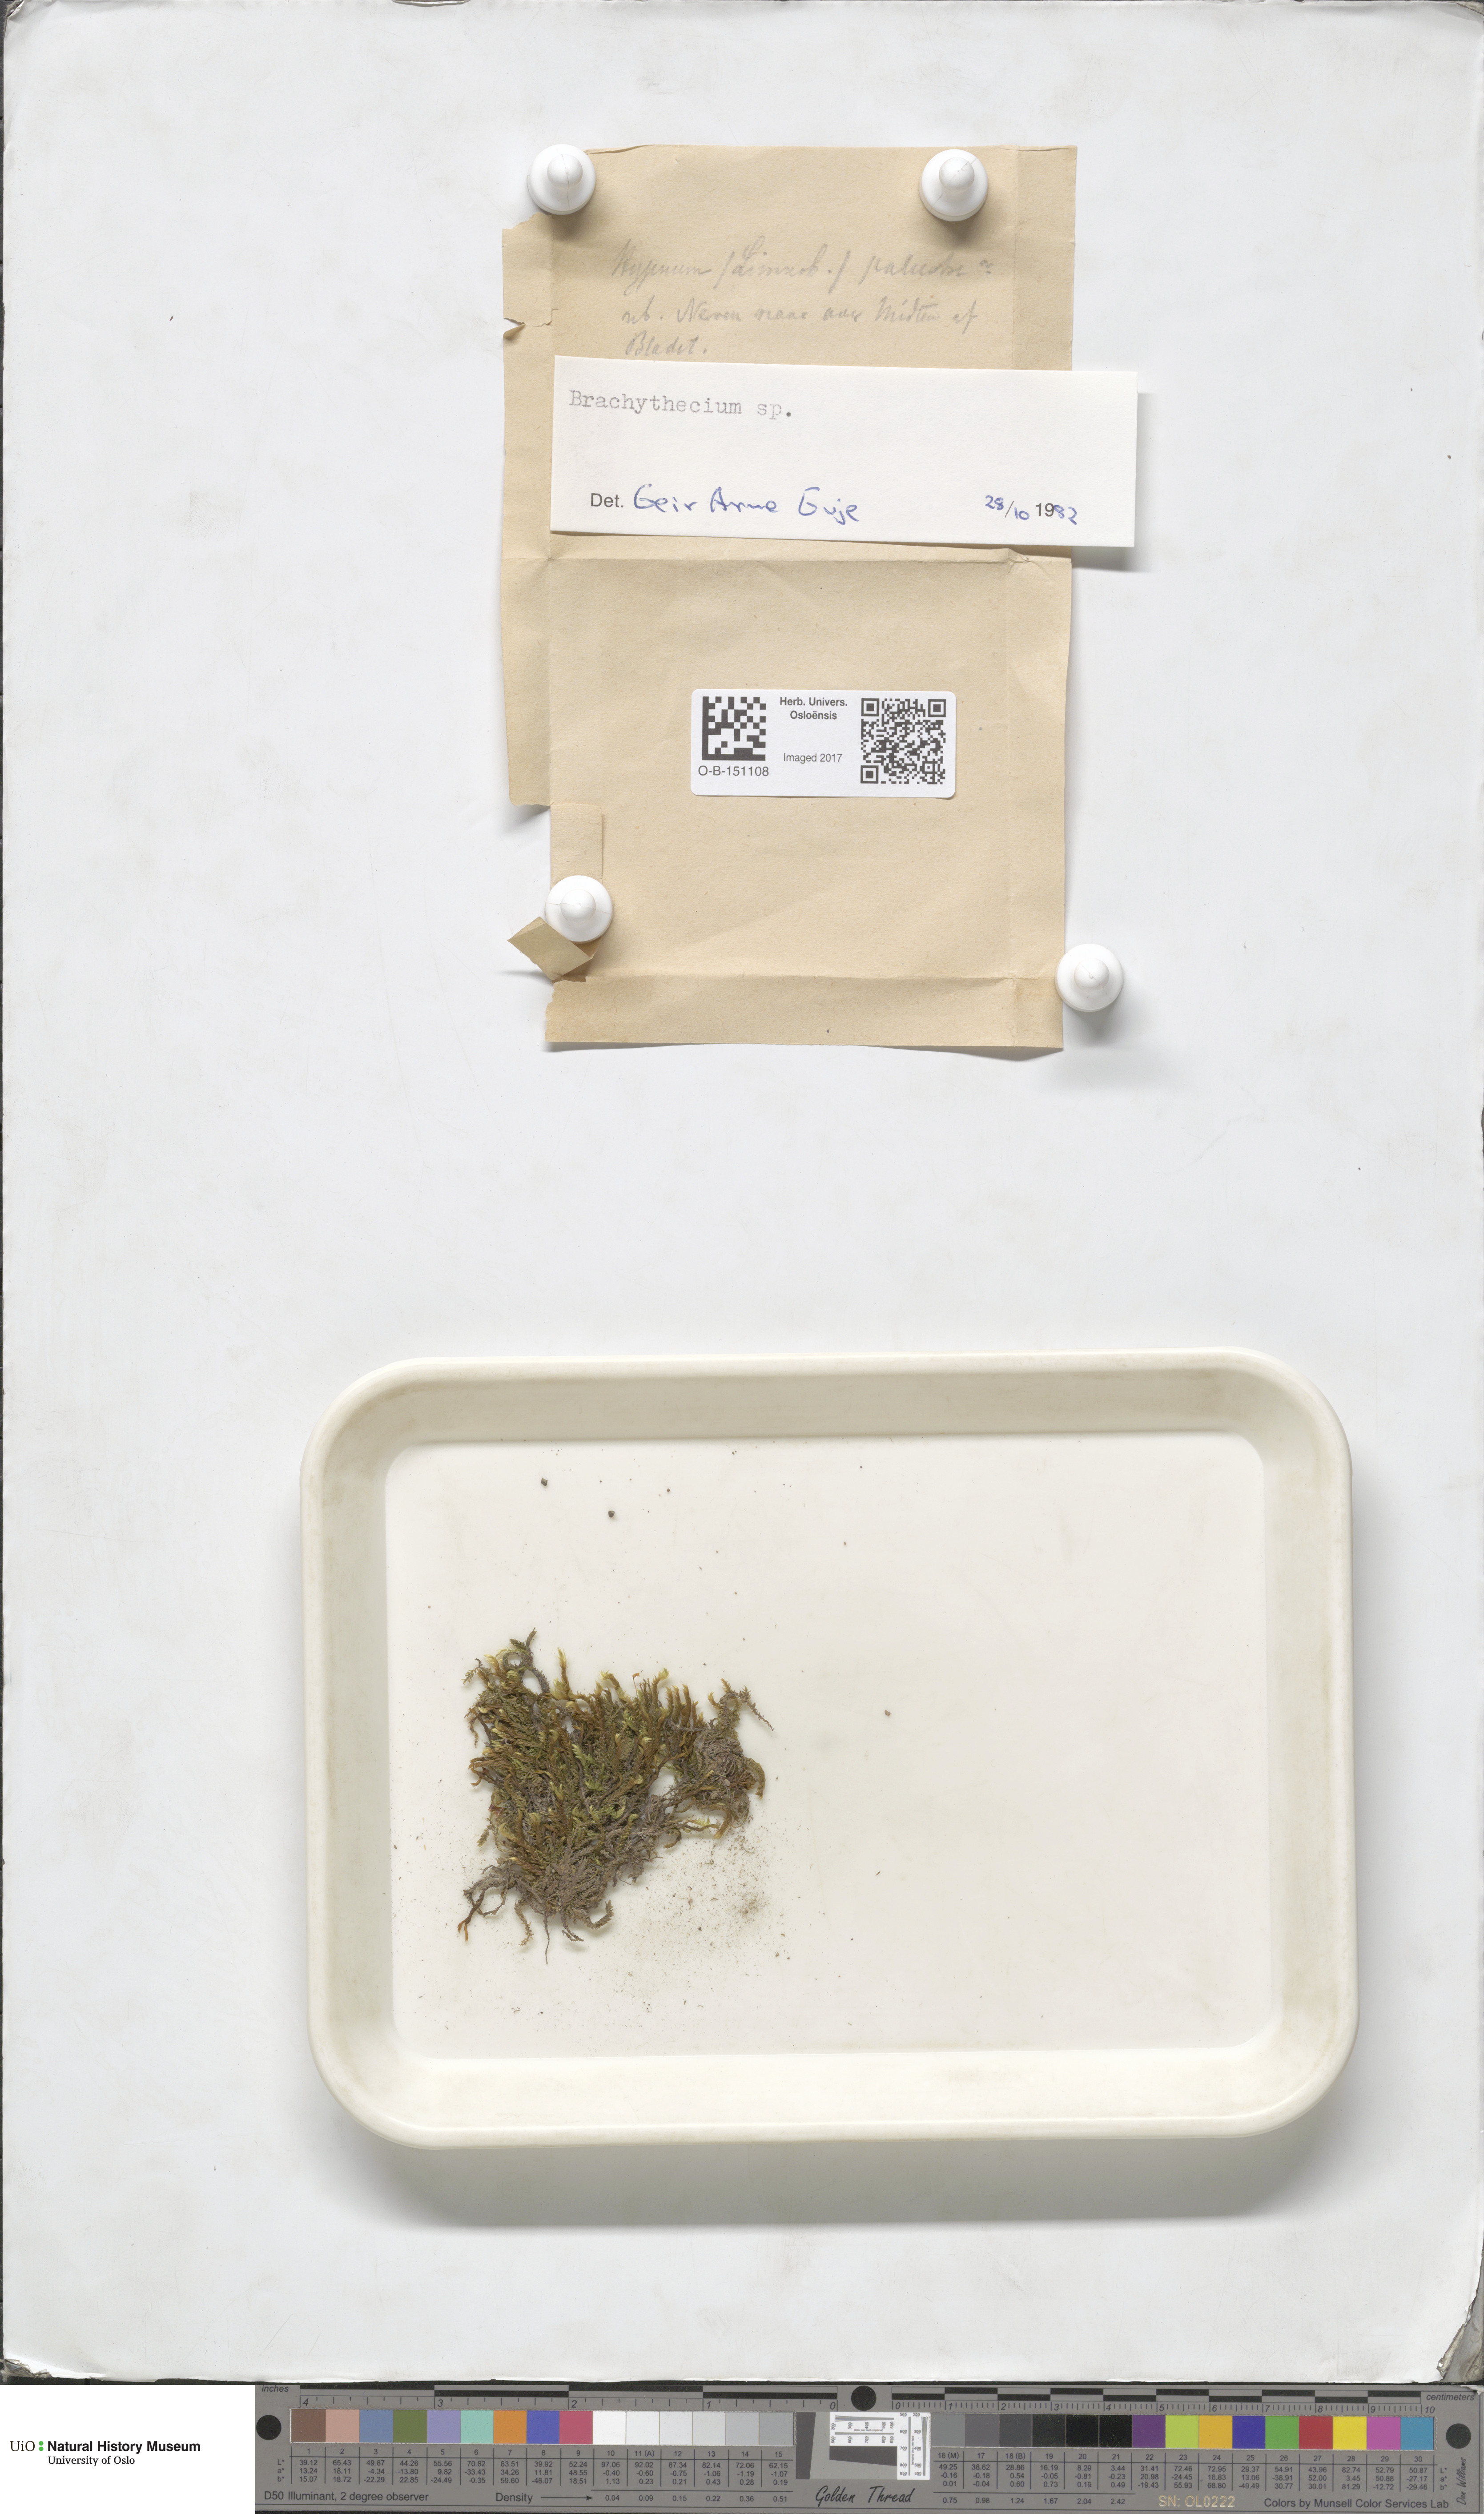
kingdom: Plantae
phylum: Bryophyta
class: Bryopsida
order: Hypnales
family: Brachytheciaceae
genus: Brachythecium
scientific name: Brachythecium
